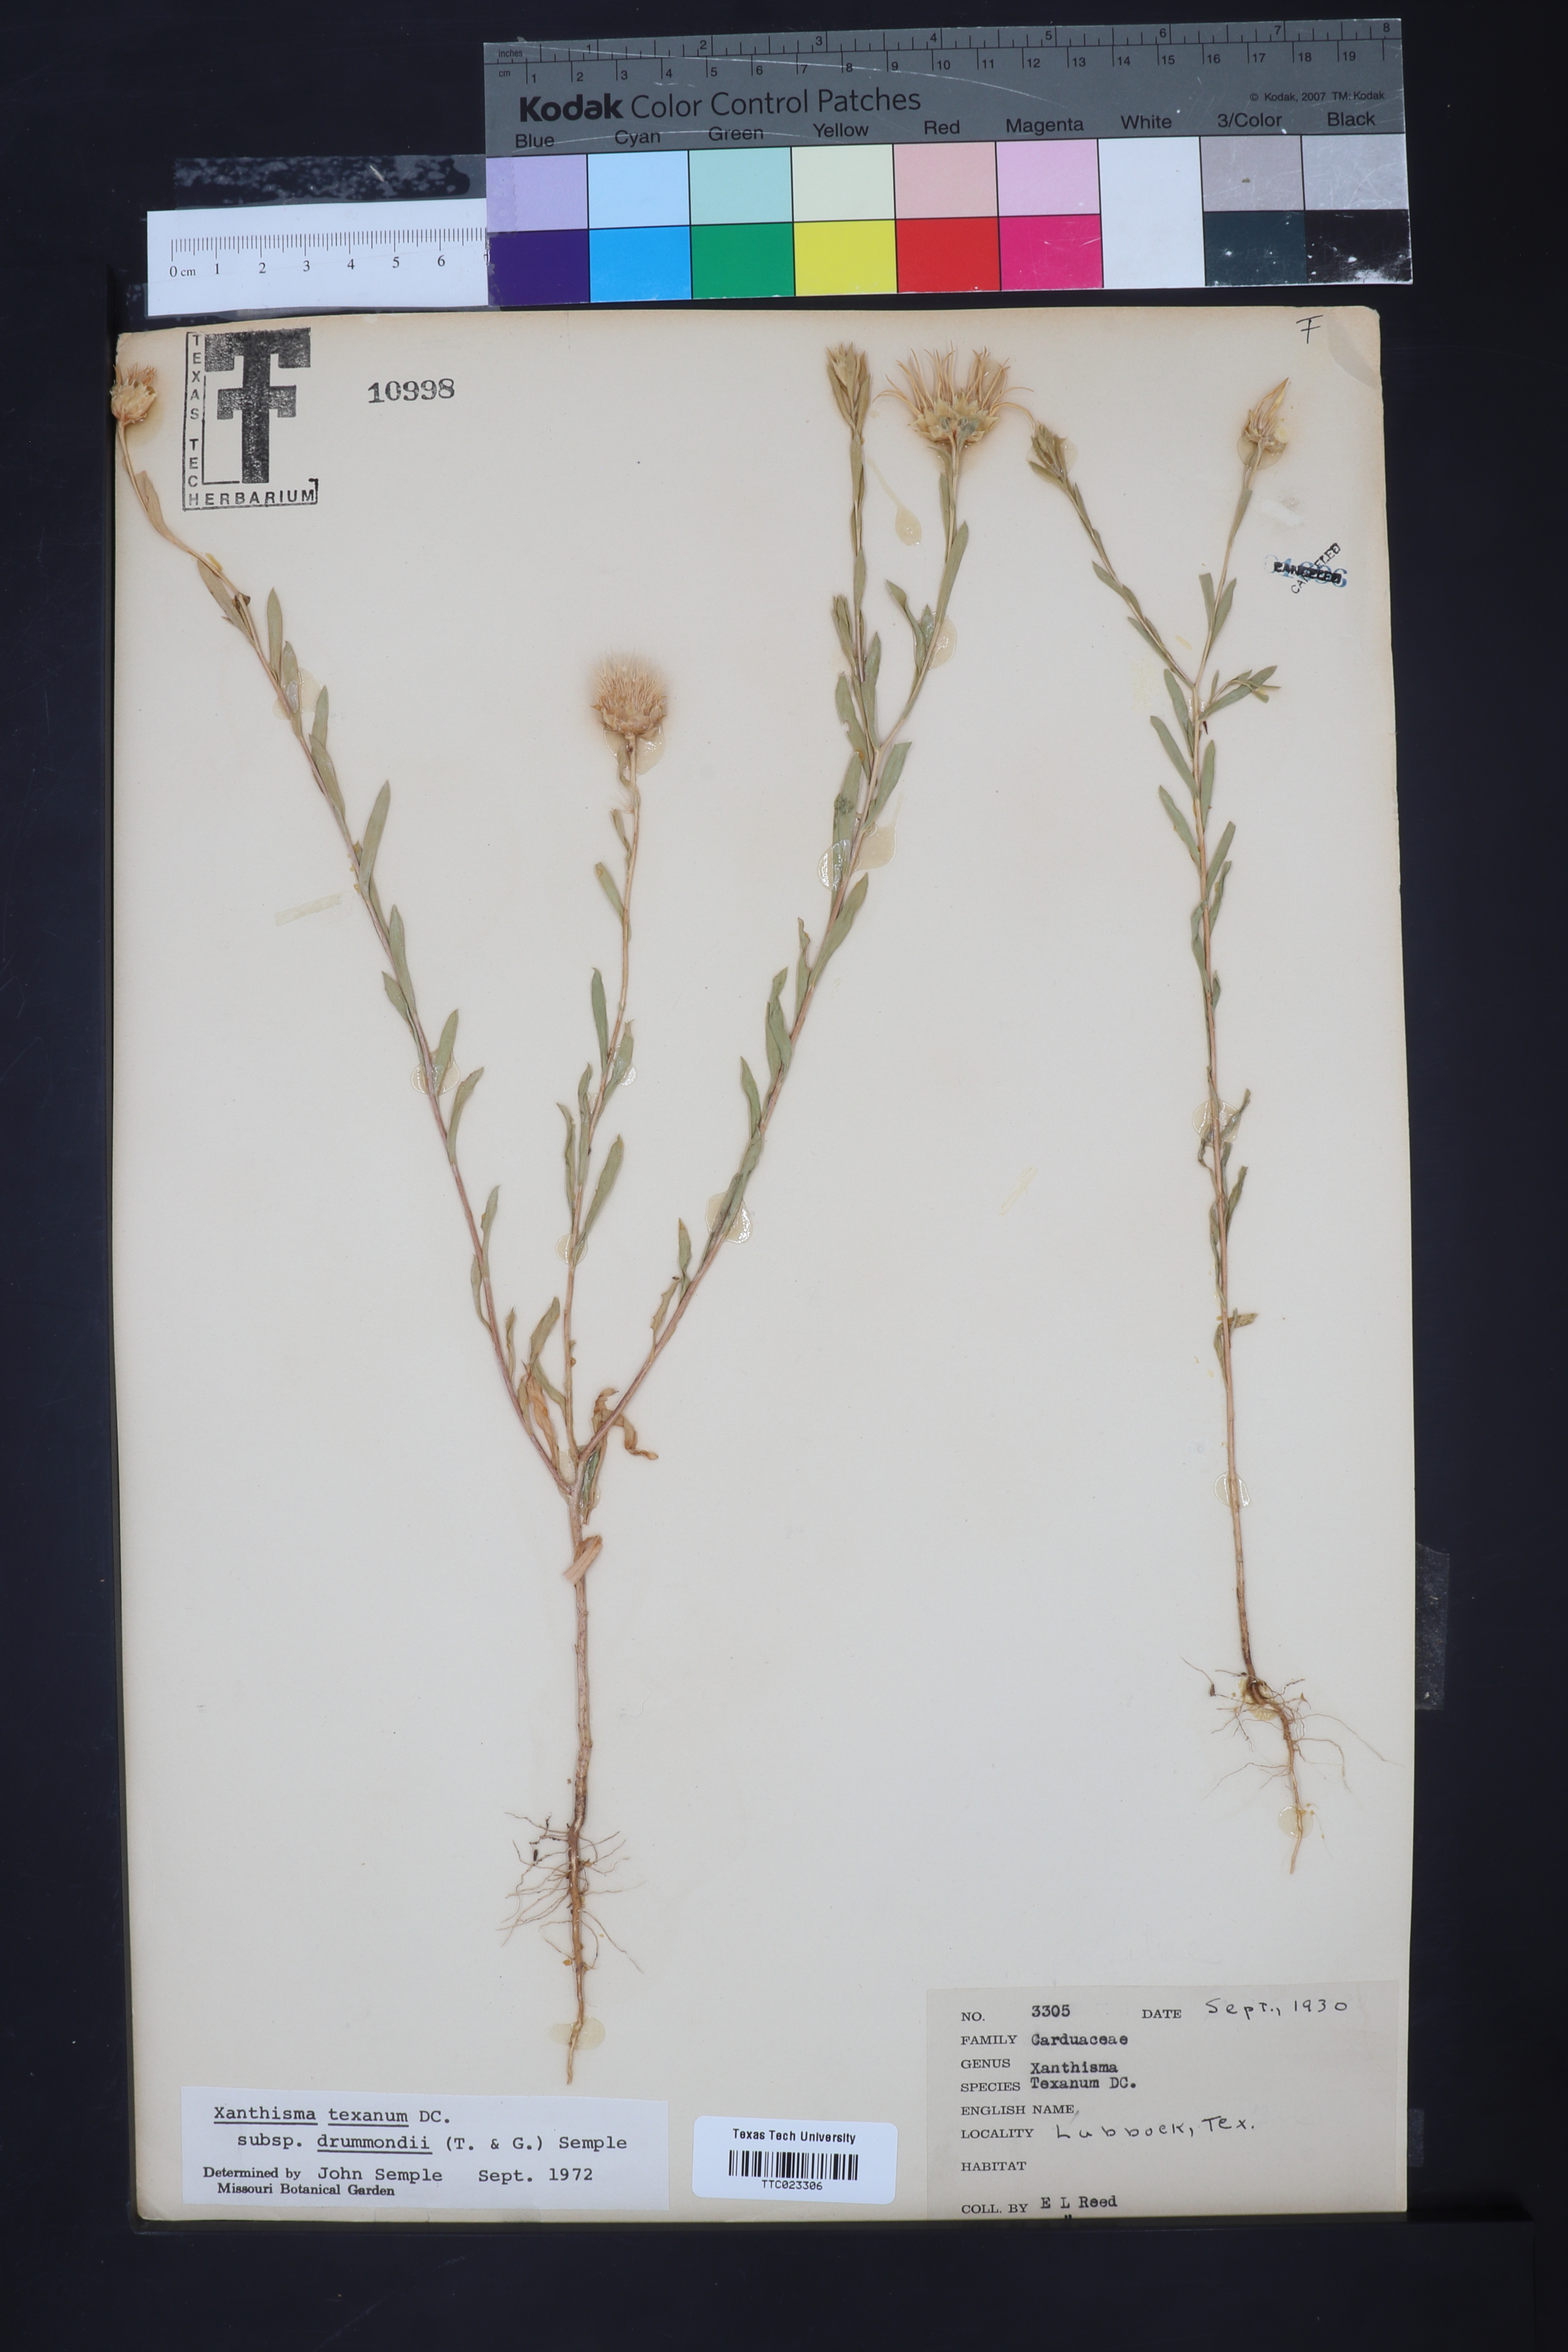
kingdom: Plantae
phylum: Tracheophyta
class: Magnoliopsida
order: Asterales
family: Asteraceae
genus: Xanthisma
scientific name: Xanthisma texanum
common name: Texas sleepy daisy
